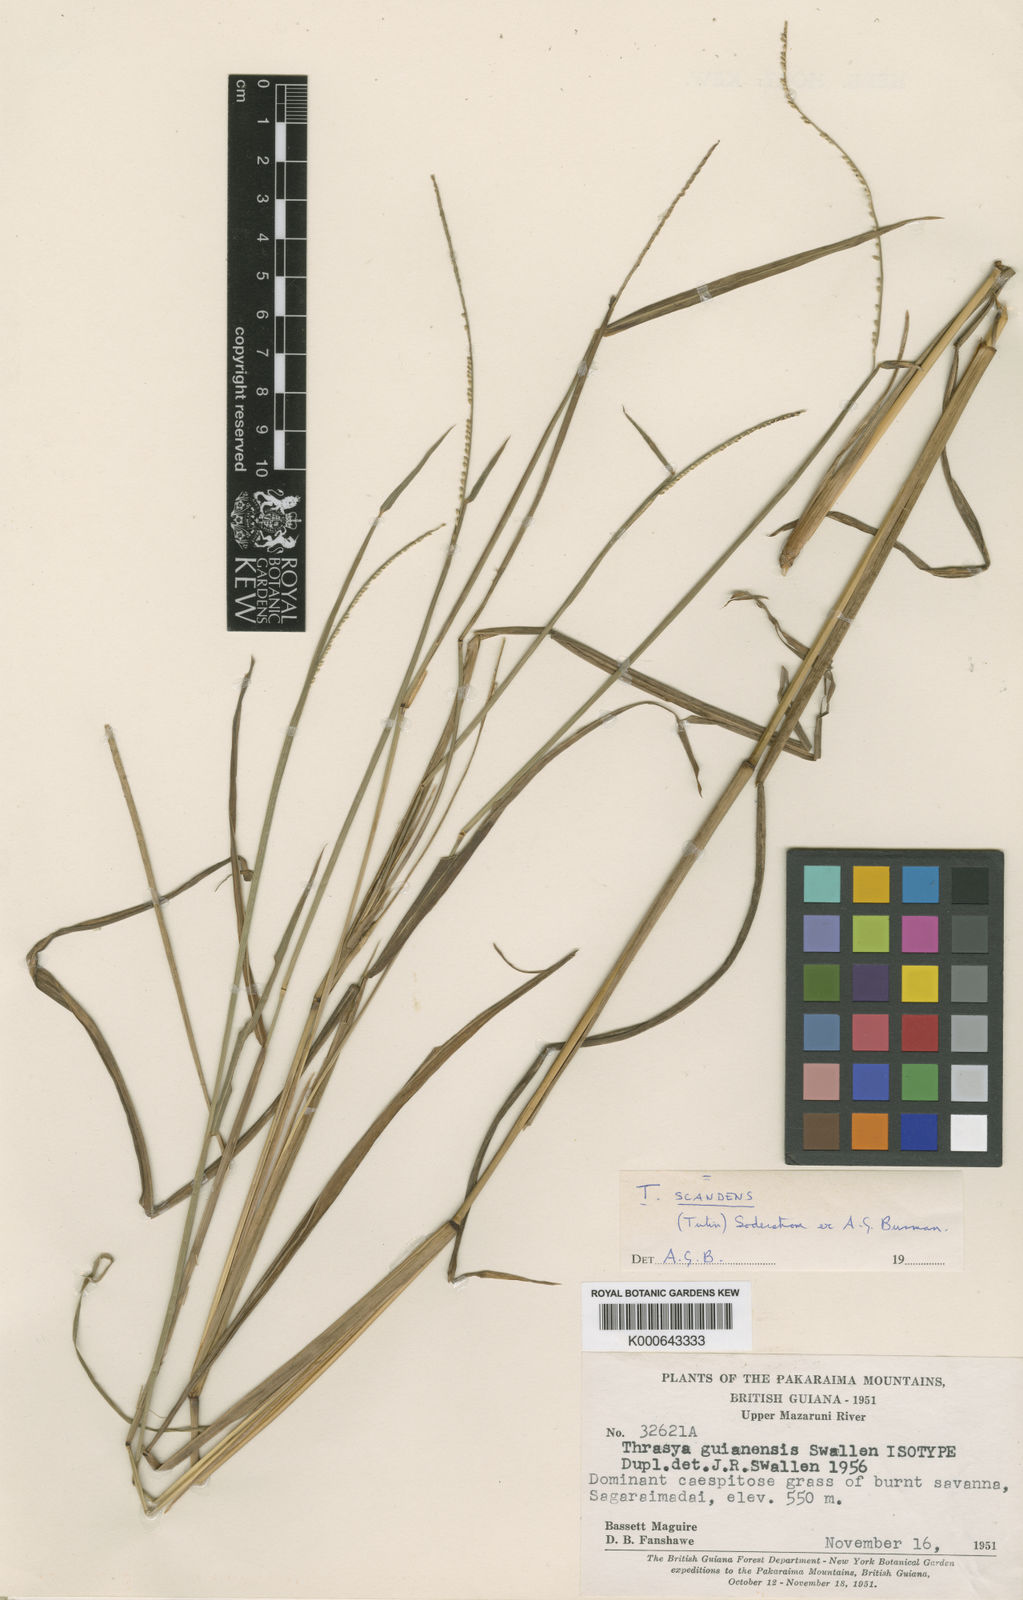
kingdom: Plantae
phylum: Tracheophyta
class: Liliopsida
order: Poales
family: Poaceae
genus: Paspalum
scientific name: Paspalum scandens
